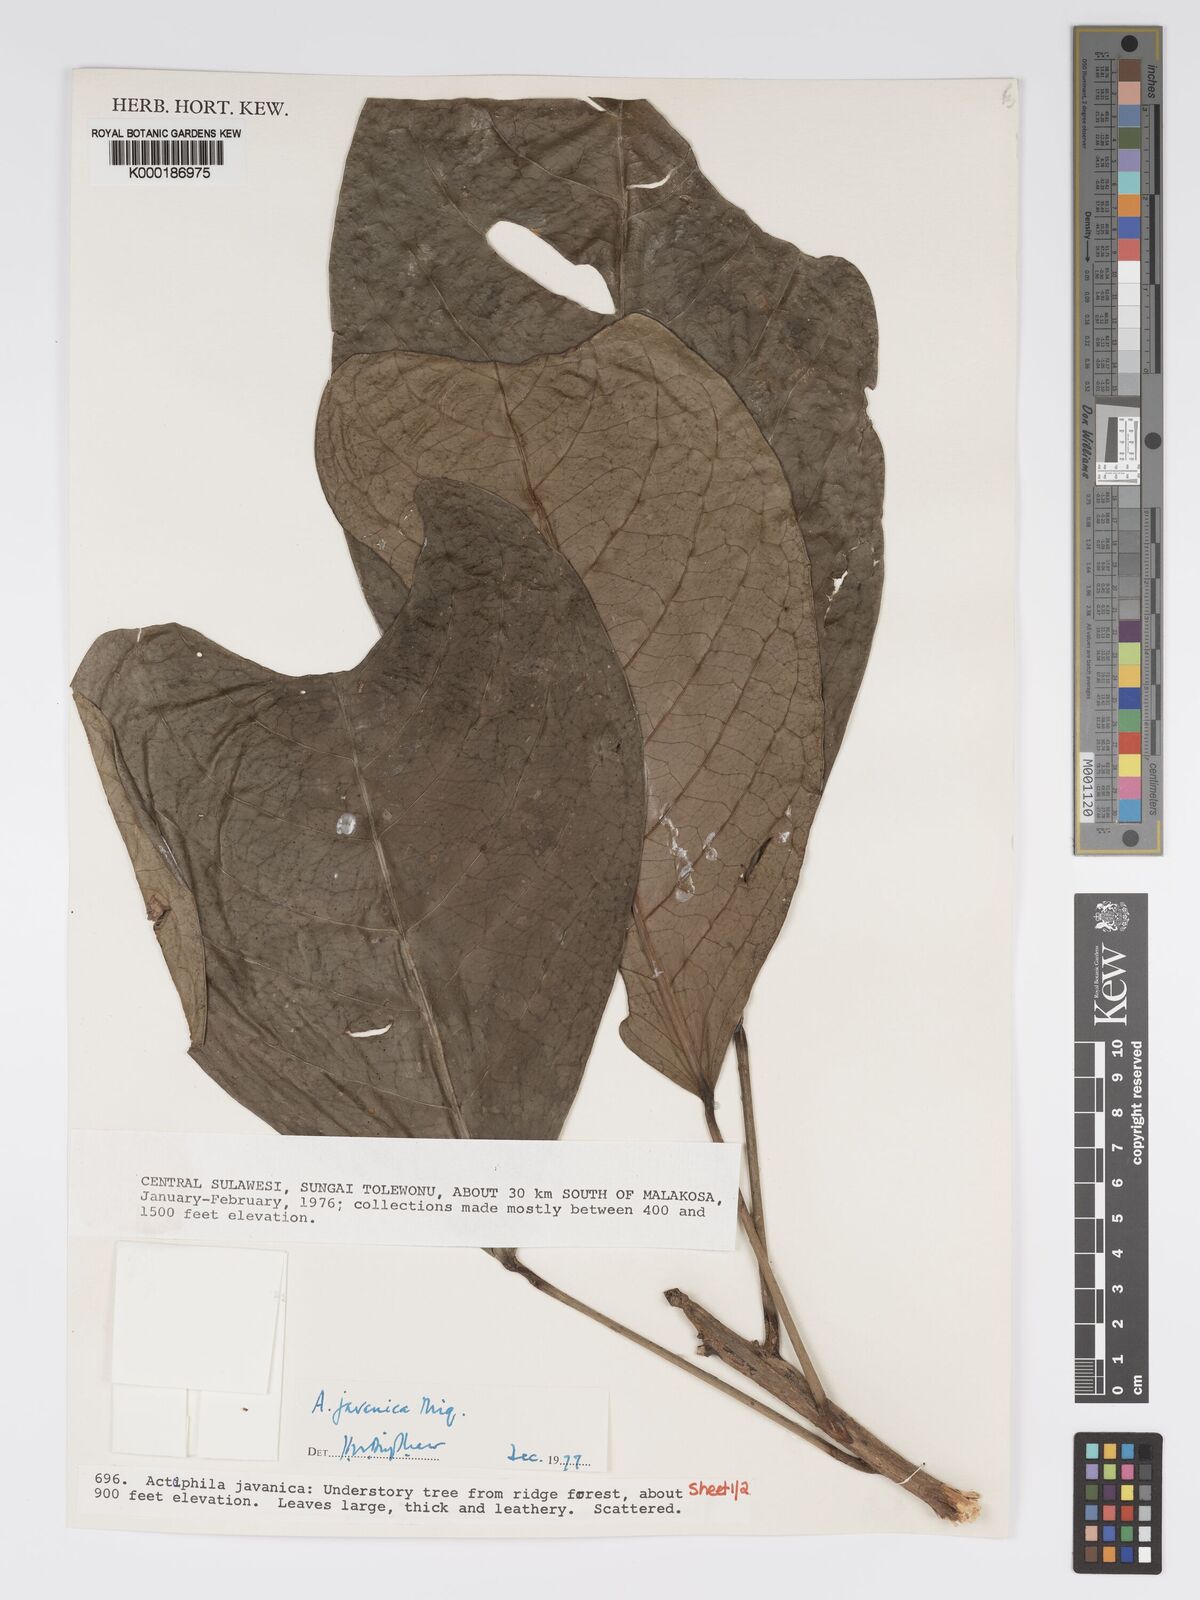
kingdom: Plantae
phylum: Tracheophyta
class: Magnoliopsida
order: Malpighiales
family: Phyllanthaceae
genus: Actephila
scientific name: Actephila
